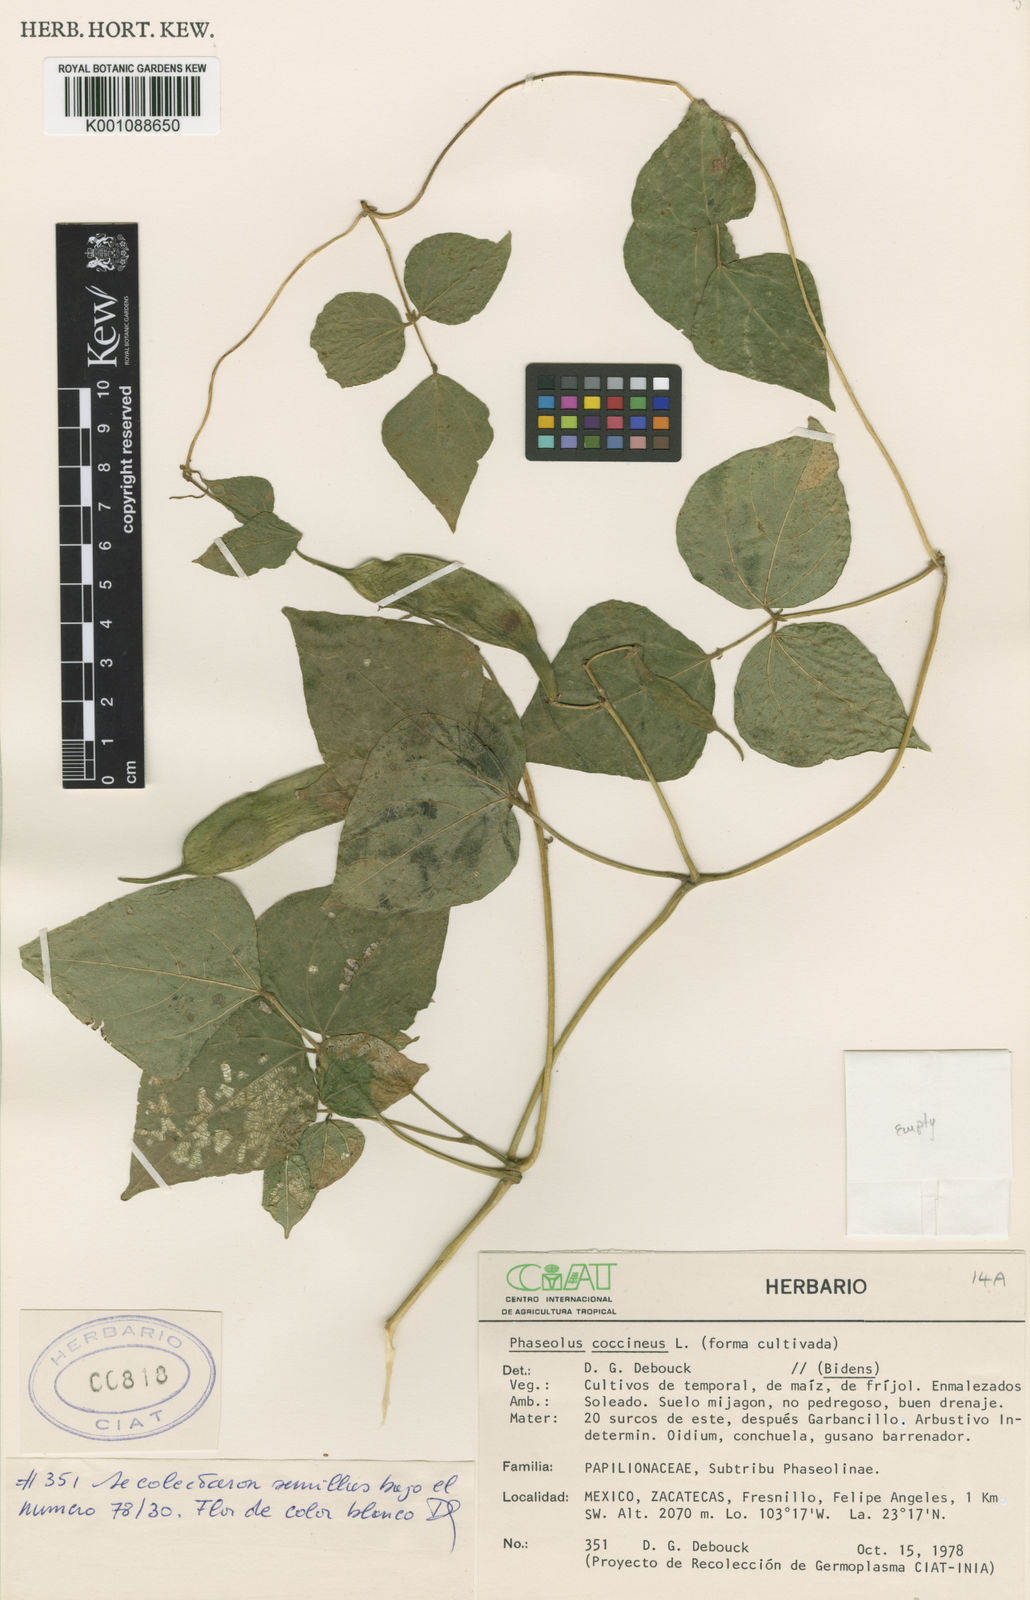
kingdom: Plantae
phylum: Tracheophyta
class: Magnoliopsida
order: Fabales
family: Fabaceae
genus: Phaseolus
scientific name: Phaseolus coccineus
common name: Runner bean
